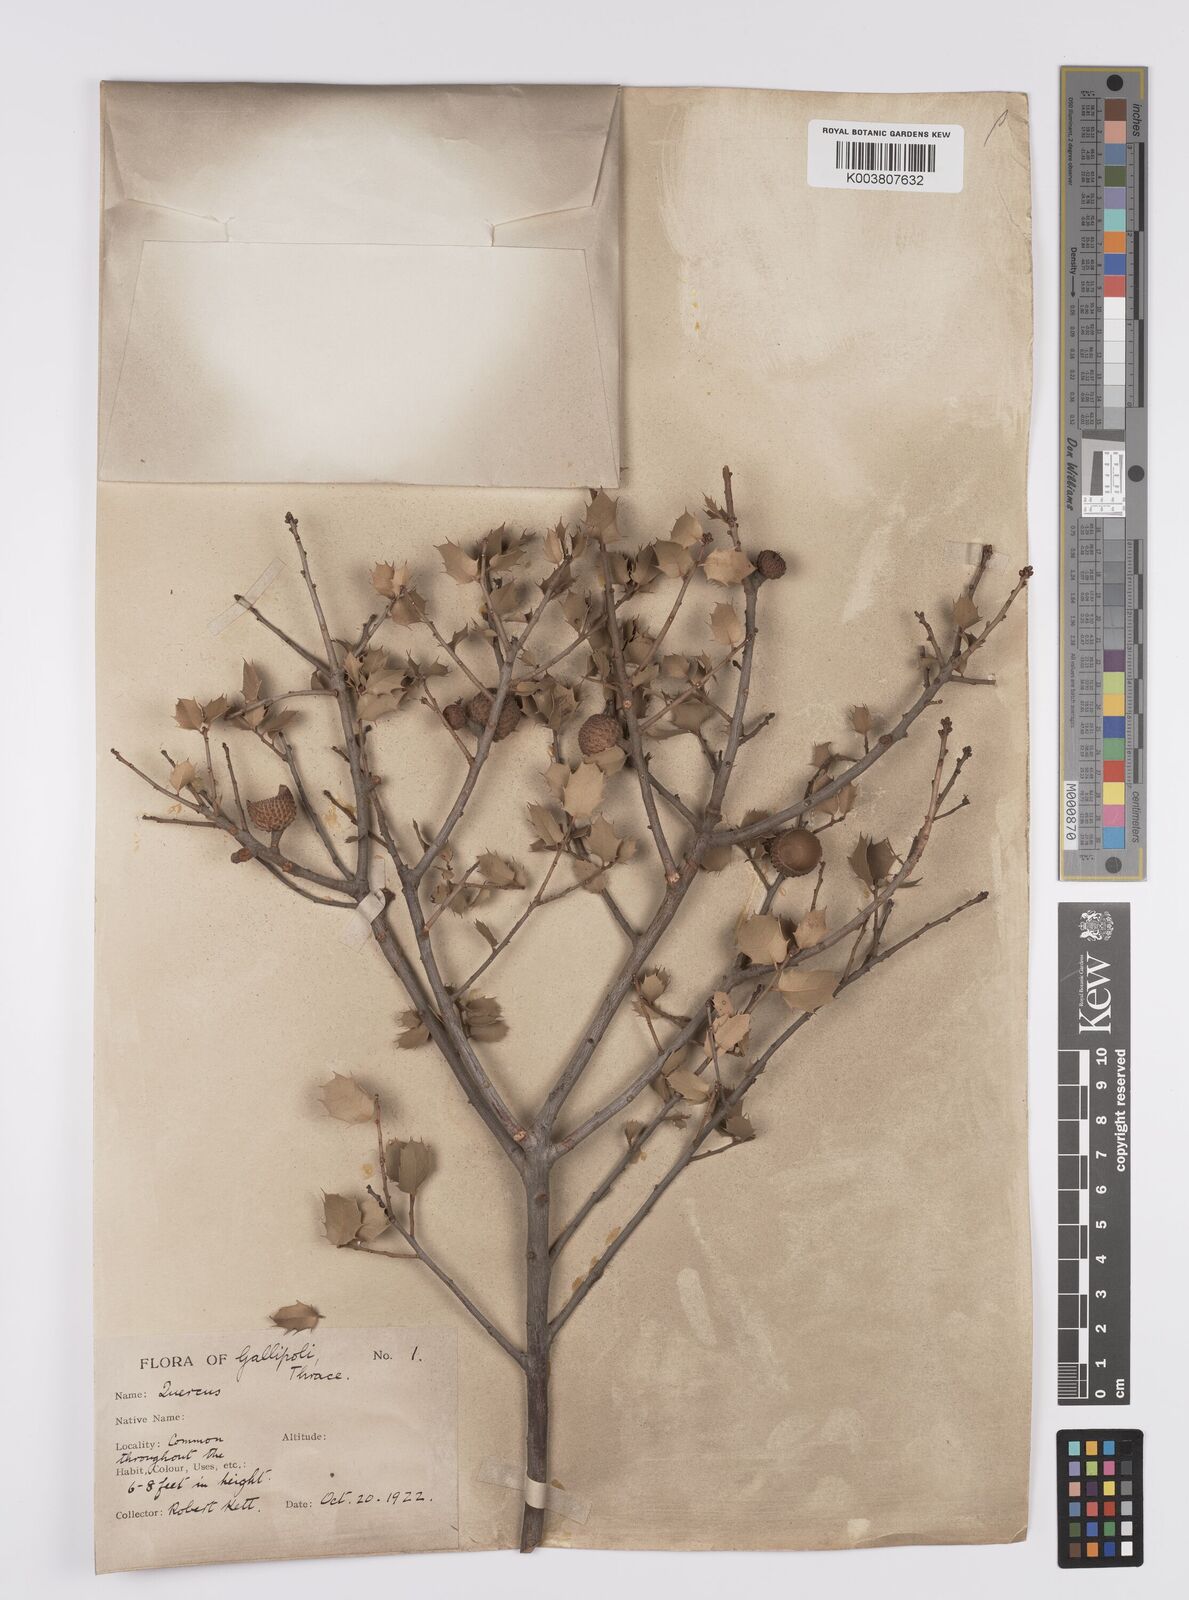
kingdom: Plantae
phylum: Tracheophyta
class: Magnoliopsida
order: Fagales
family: Fagaceae
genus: Quercus
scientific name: Quercus coccifera
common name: Kermes oak
